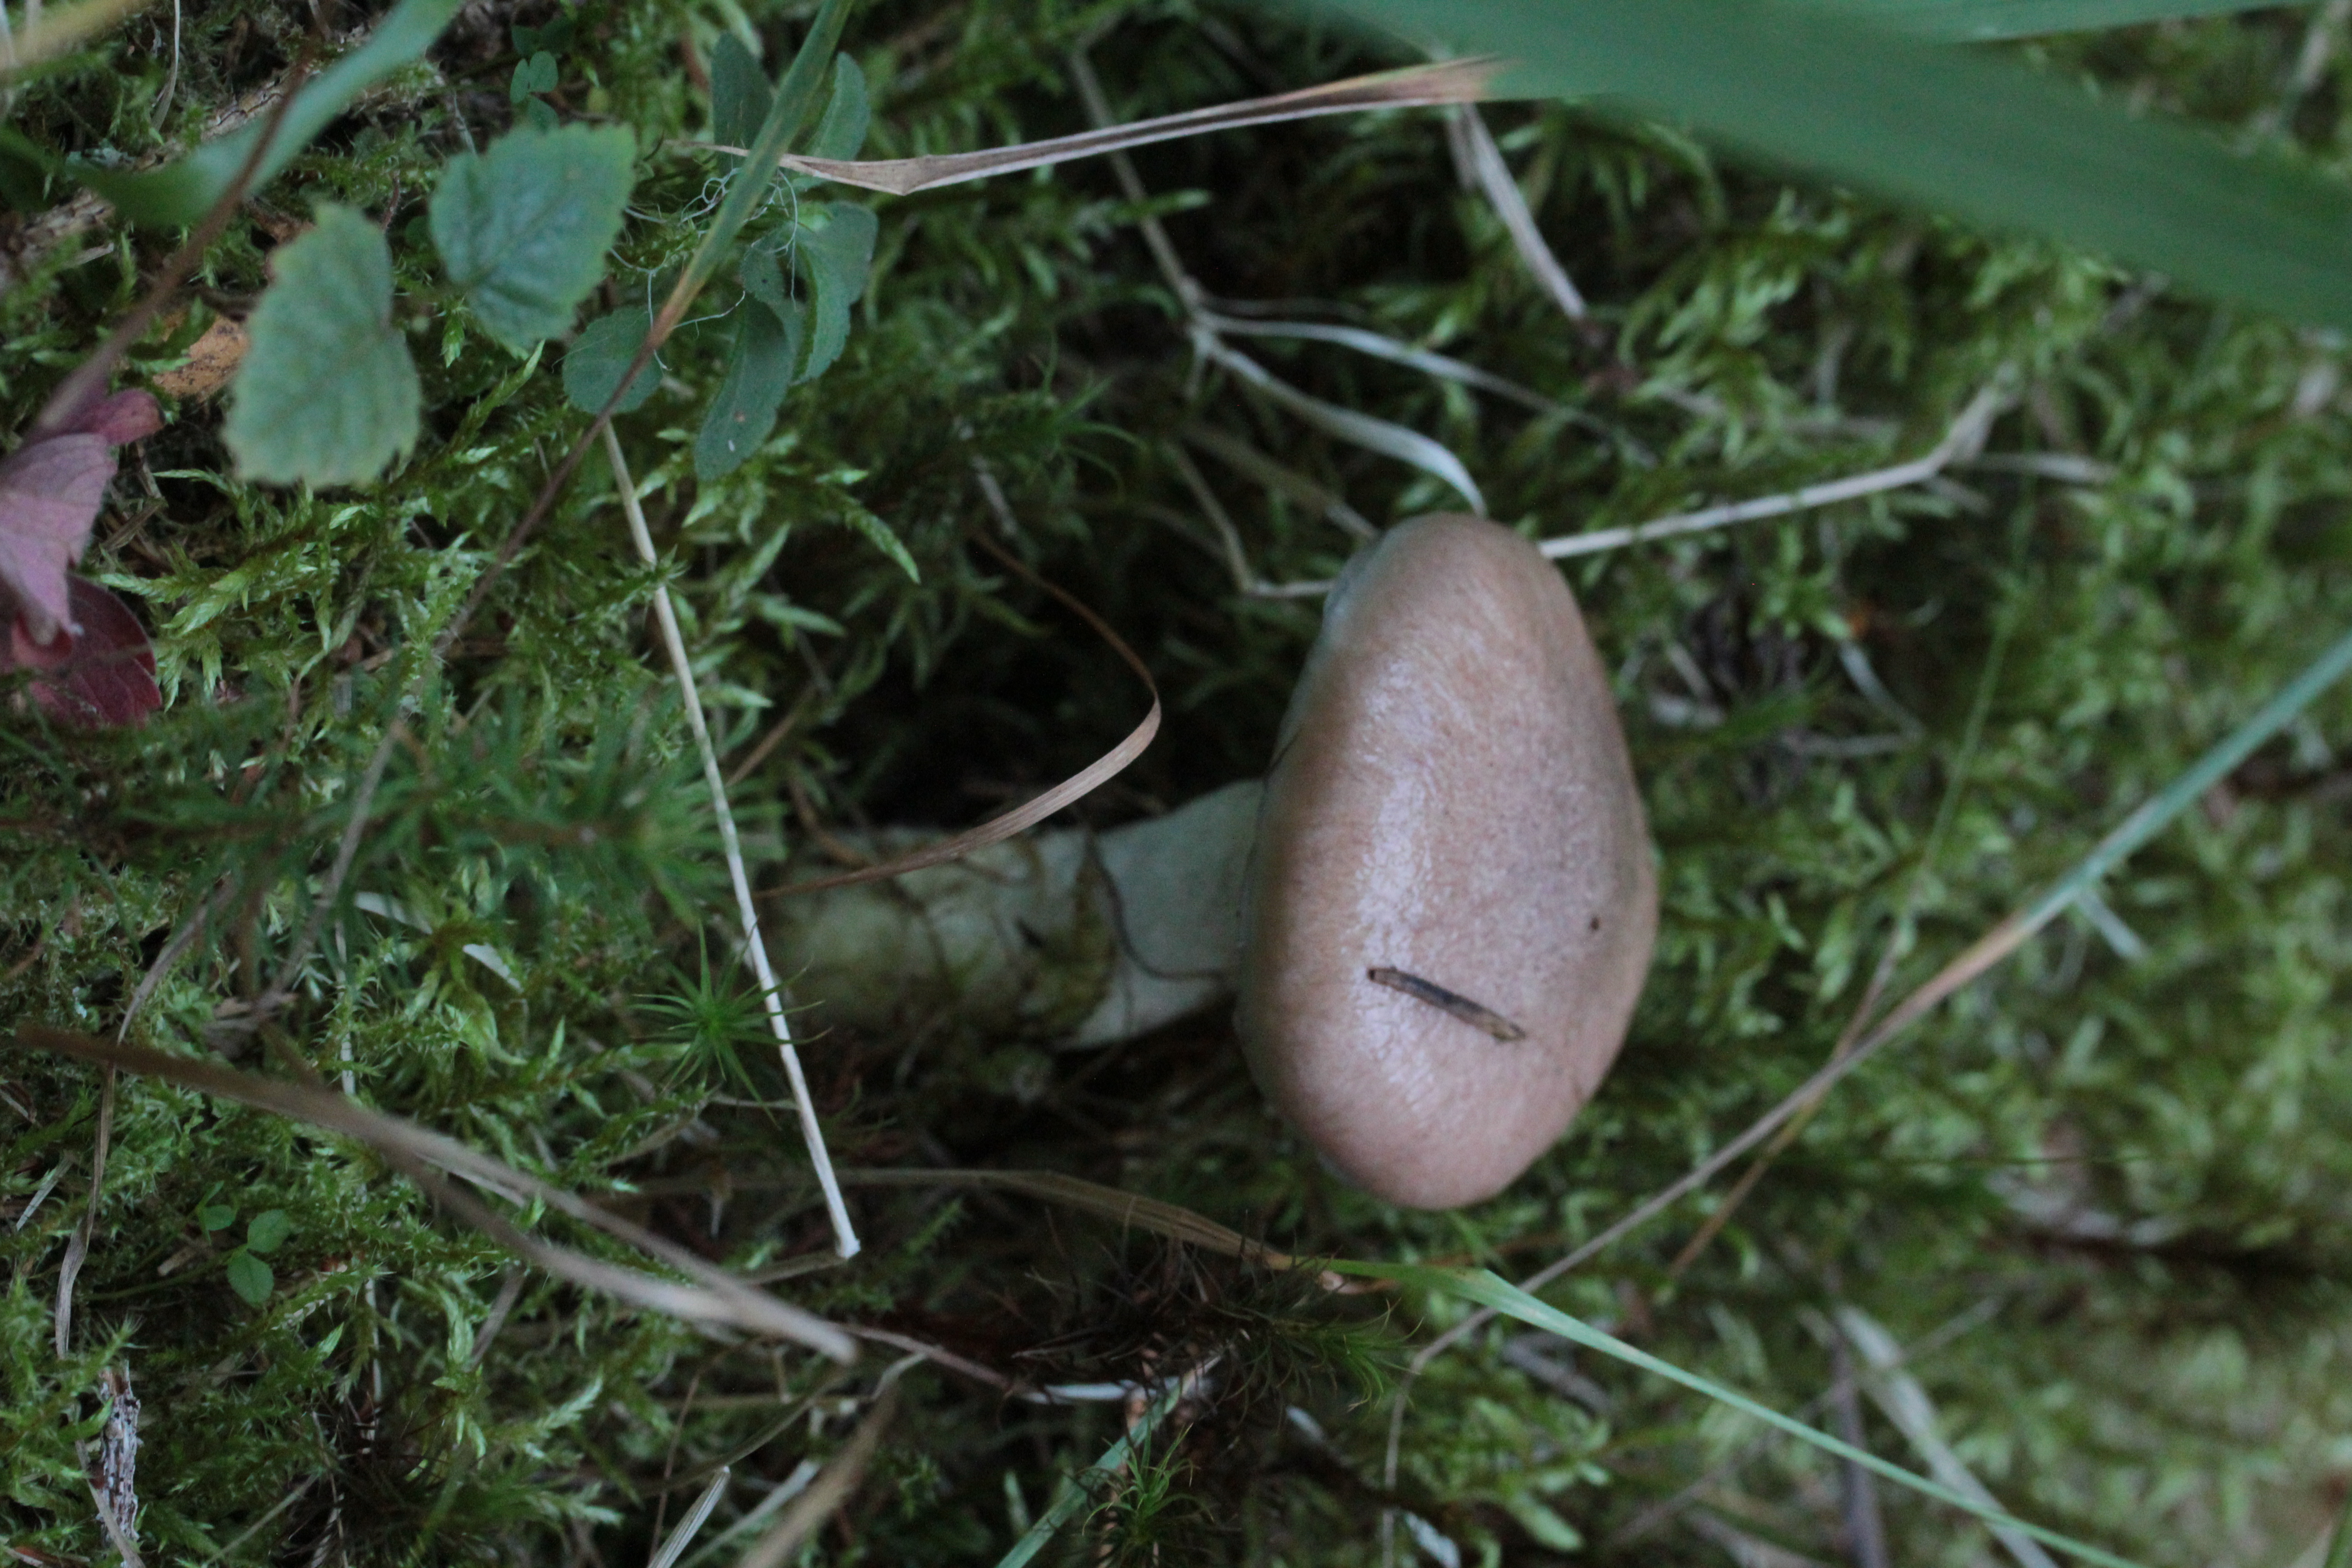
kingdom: Fungi
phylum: Basidiomycota
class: Agaricomycetes
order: Boletales
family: Gomphidiaceae
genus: Gomphidius
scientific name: Gomphidius glutinosus
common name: Slimy spike
